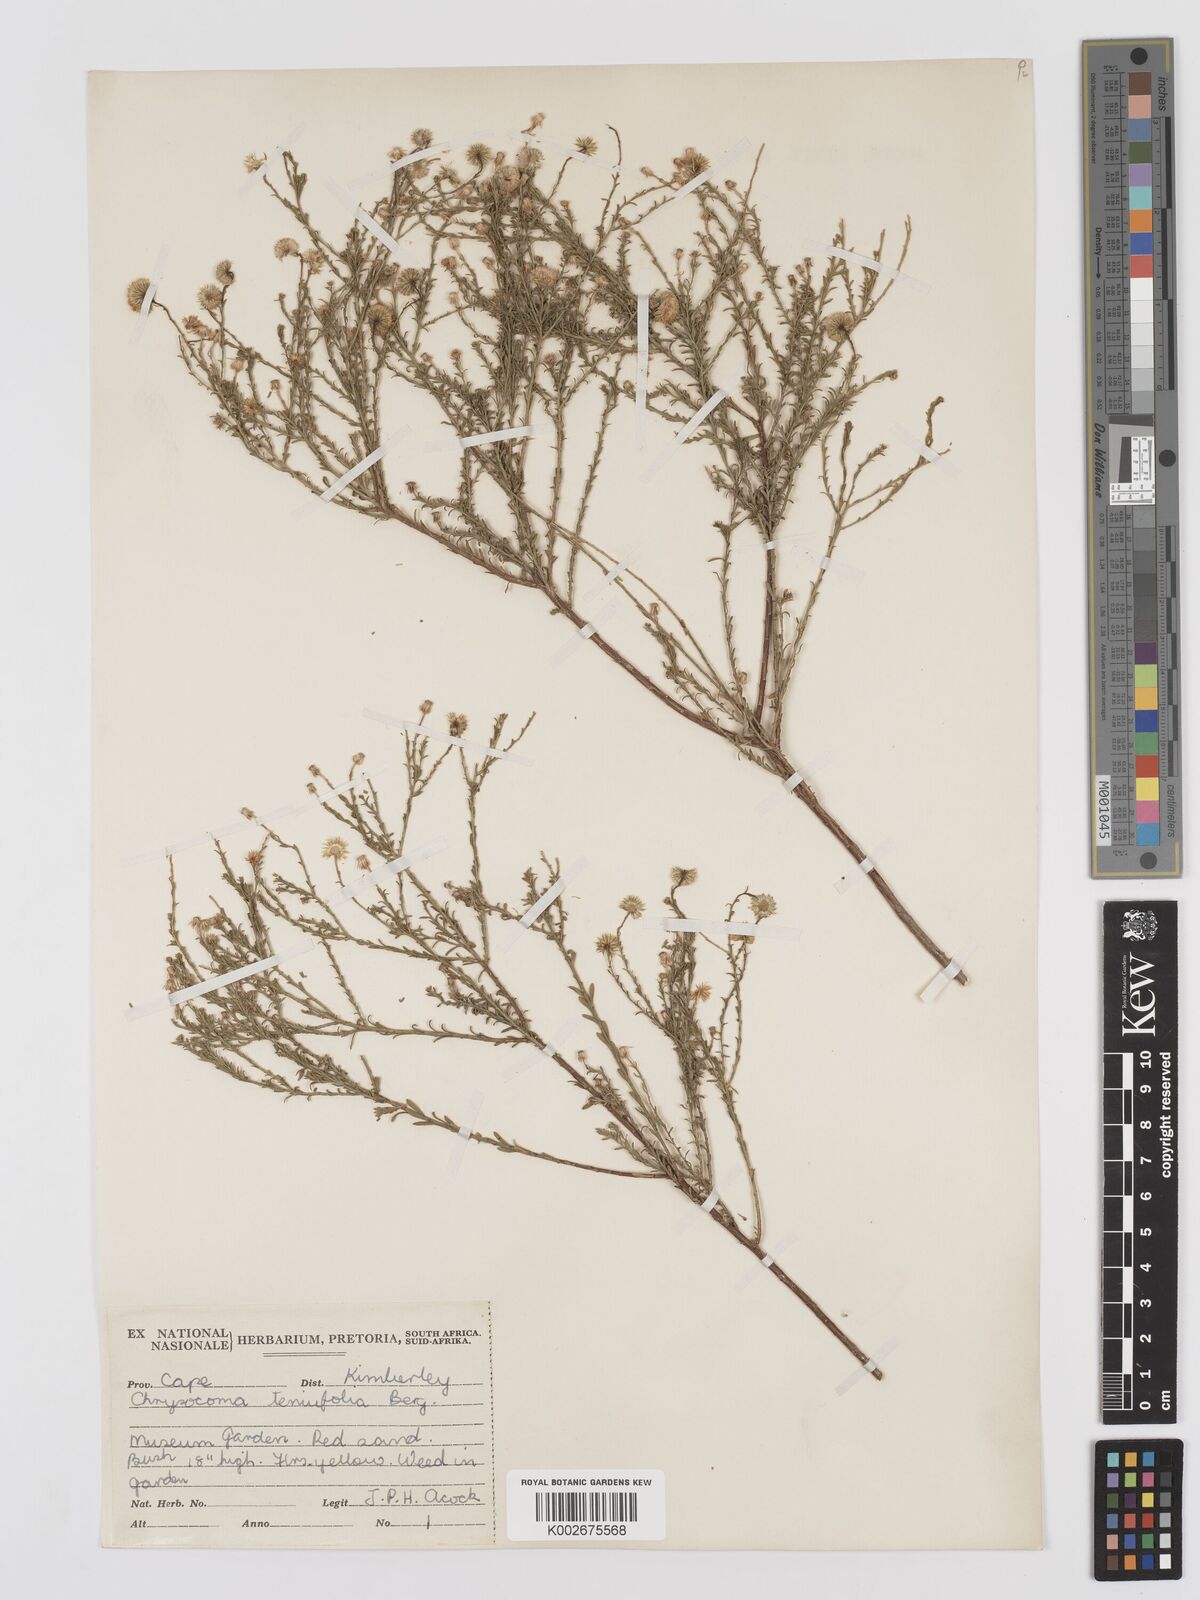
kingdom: Plantae
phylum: Tracheophyta
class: Magnoliopsida
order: Asterales
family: Asteraceae
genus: Chrysocoma
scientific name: Chrysocoma ciliata
